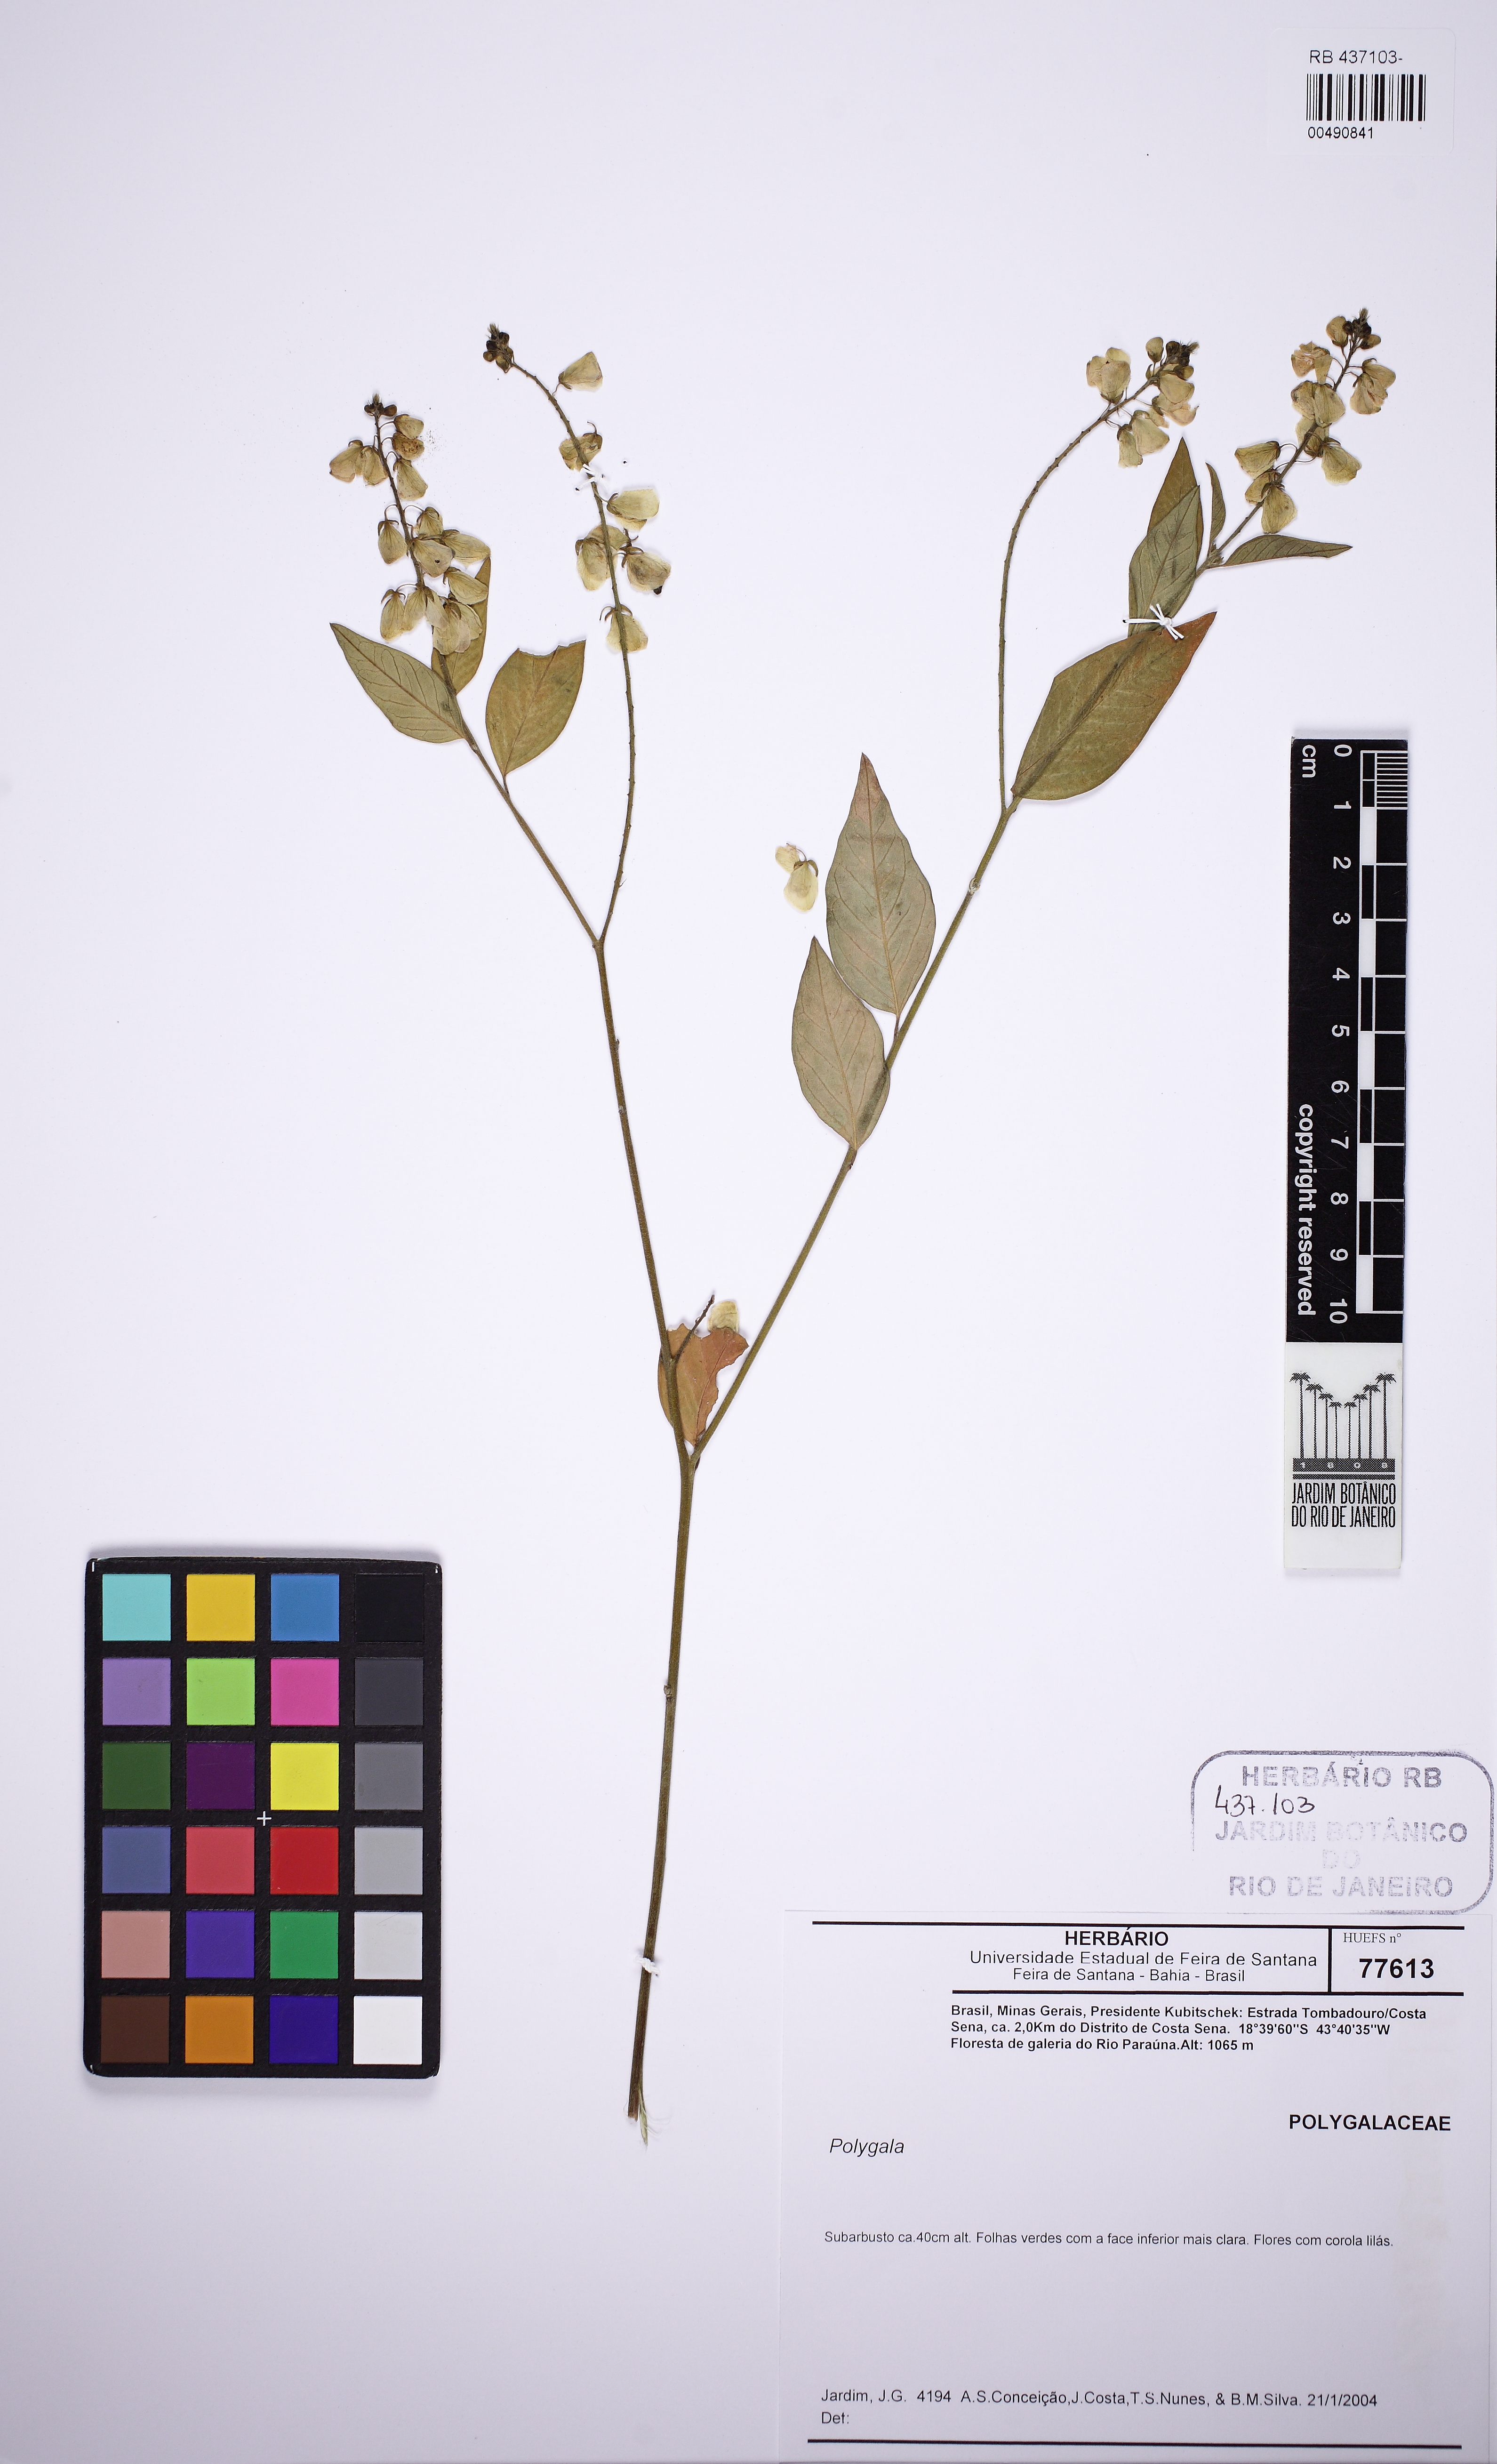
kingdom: Plantae
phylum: Tracheophyta
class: Magnoliopsida
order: Fabales
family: Polygalaceae
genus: Asemeia
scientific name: Asemeia
